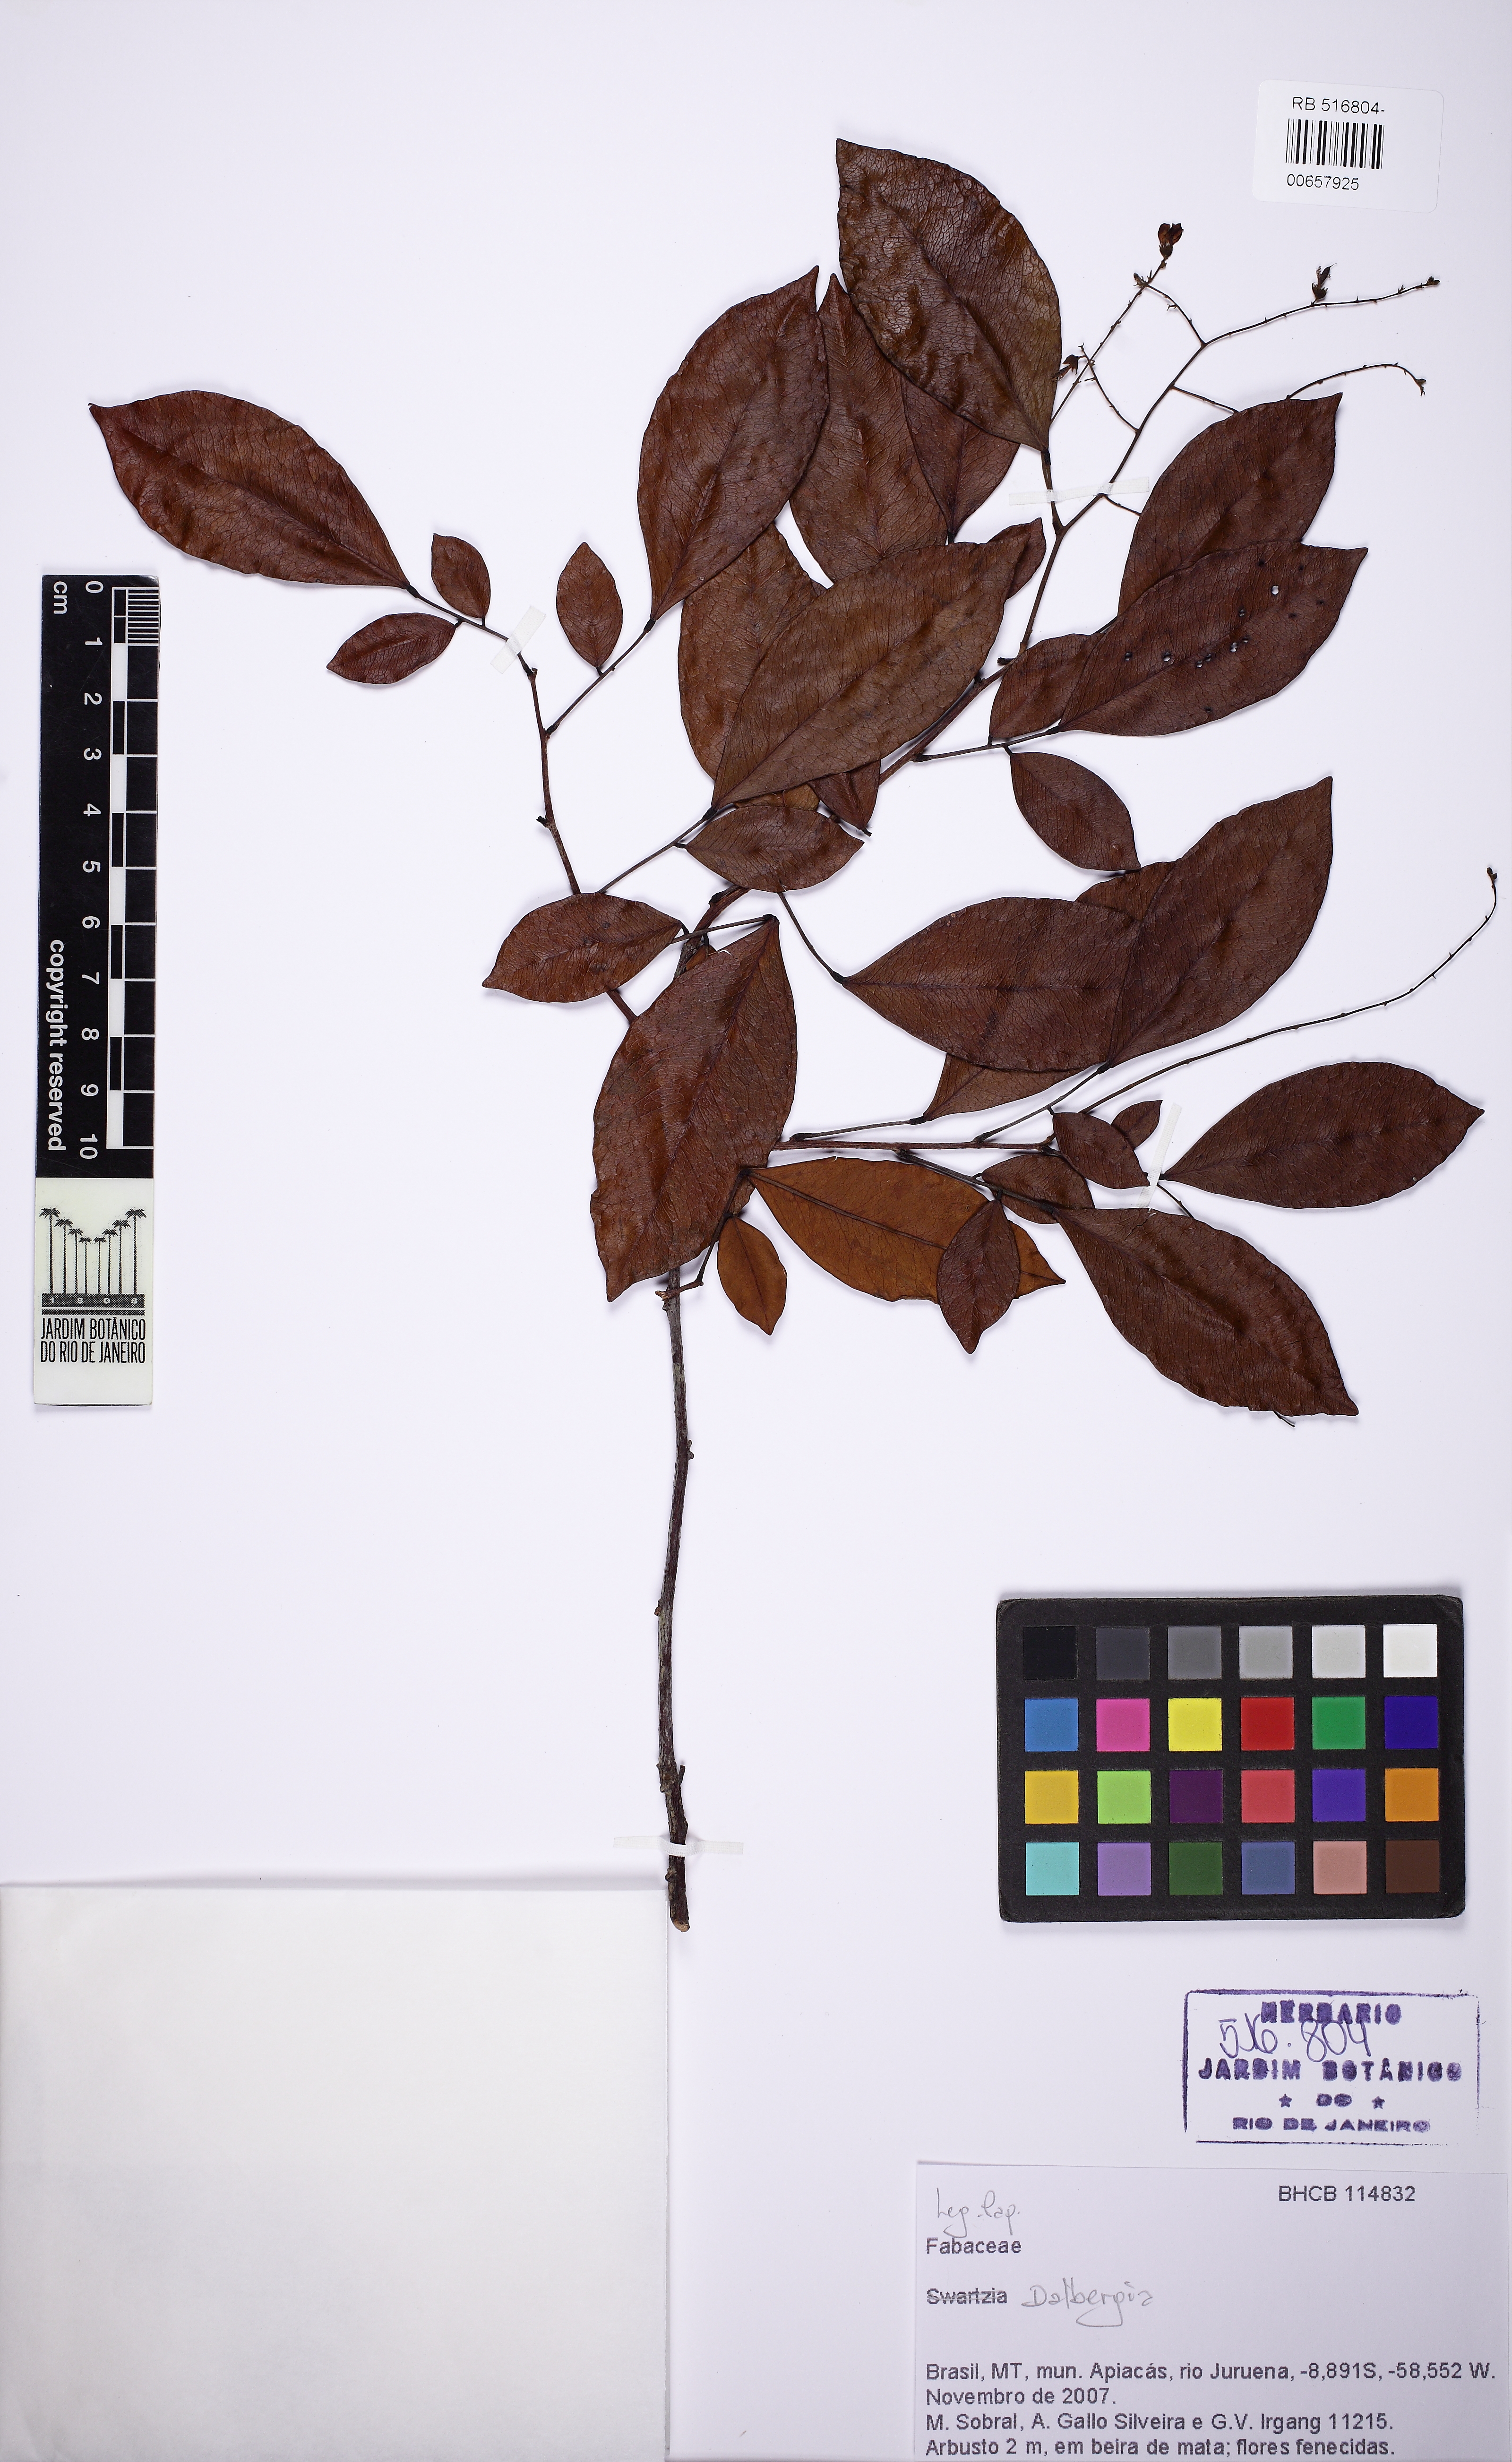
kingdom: Plantae
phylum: Tracheophyta
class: Magnoliopsida
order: Fabales
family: Polygalaceae
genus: Polygala
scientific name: Polygala poaya
